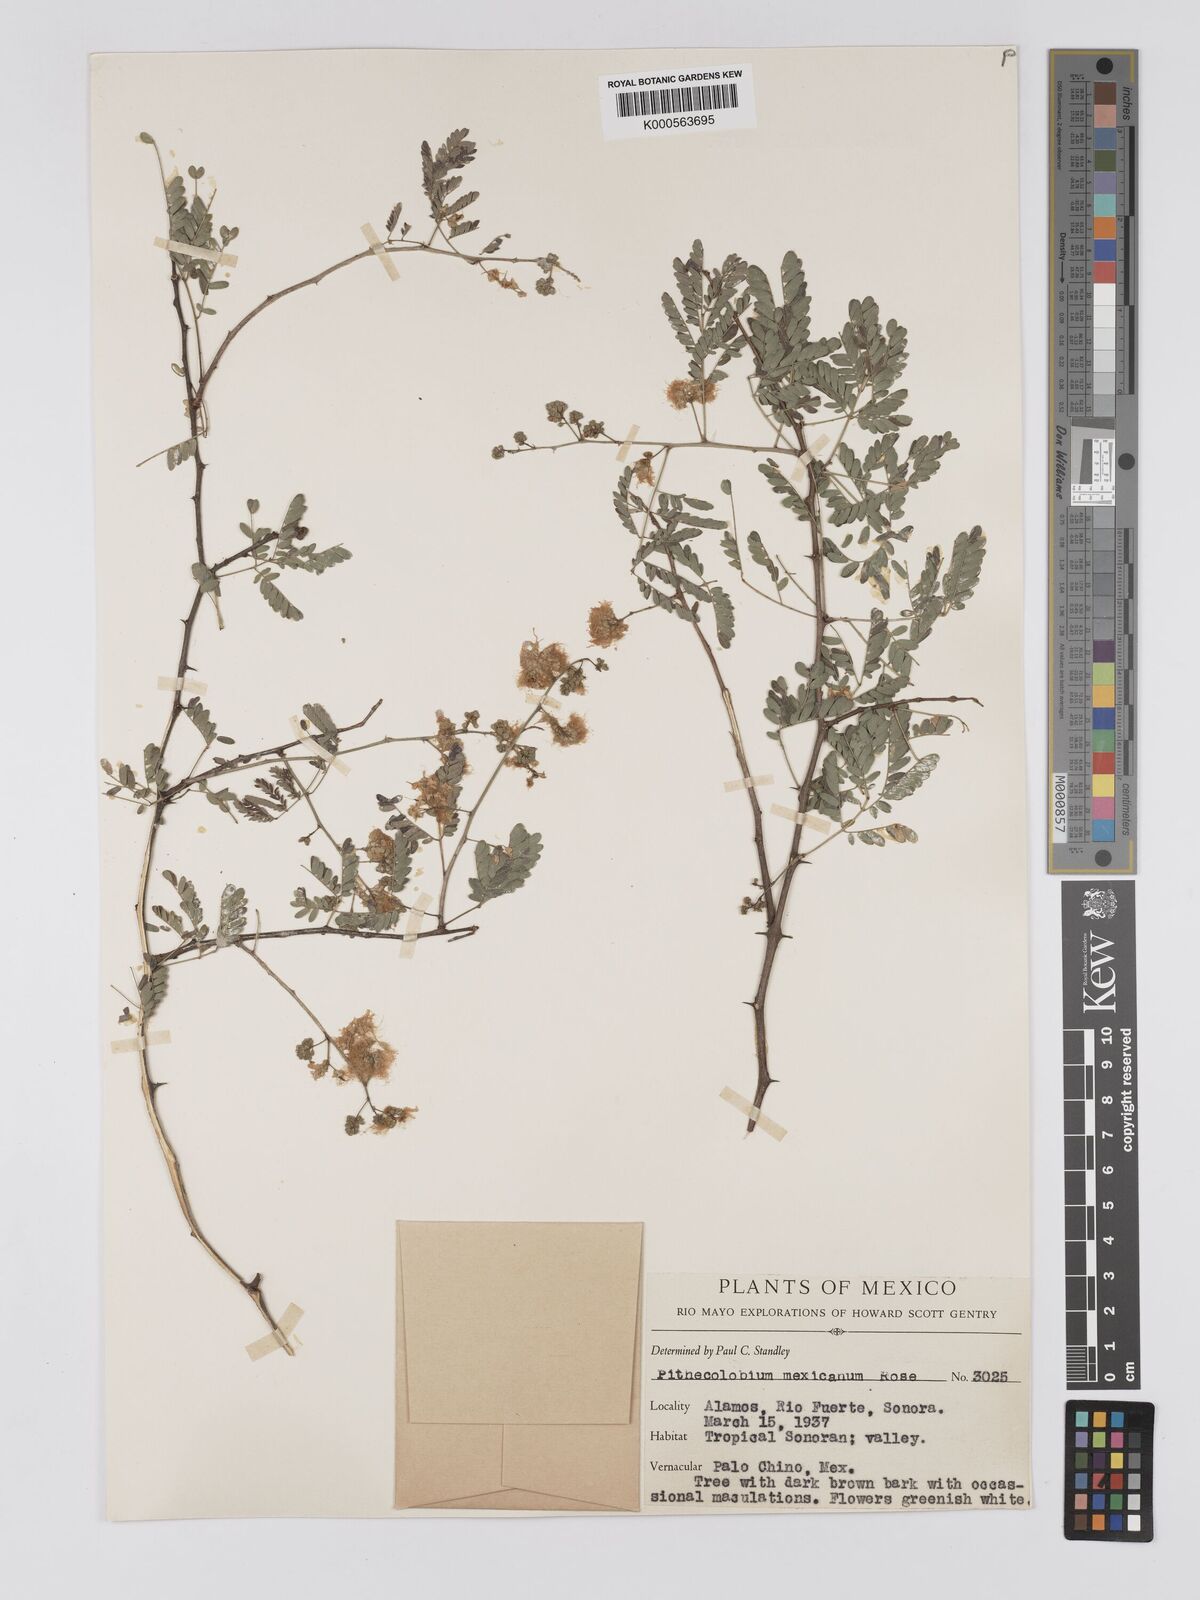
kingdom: Plantae
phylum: Tracheophyta
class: Magnoliopsida
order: Fabales
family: Fabaceae
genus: Havardia
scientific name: Havardia mexicana
